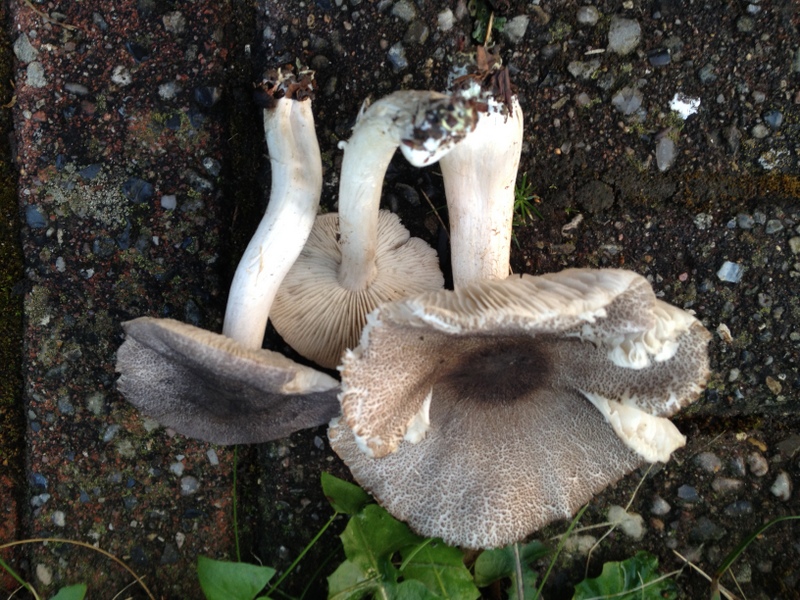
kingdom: Fungi
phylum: Basidiomycota
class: Agaricomycetes
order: Agaricales
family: Tricholomataceae
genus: Tricholoma
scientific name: Tricholoma orirubens
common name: rødbladet ridderhat
